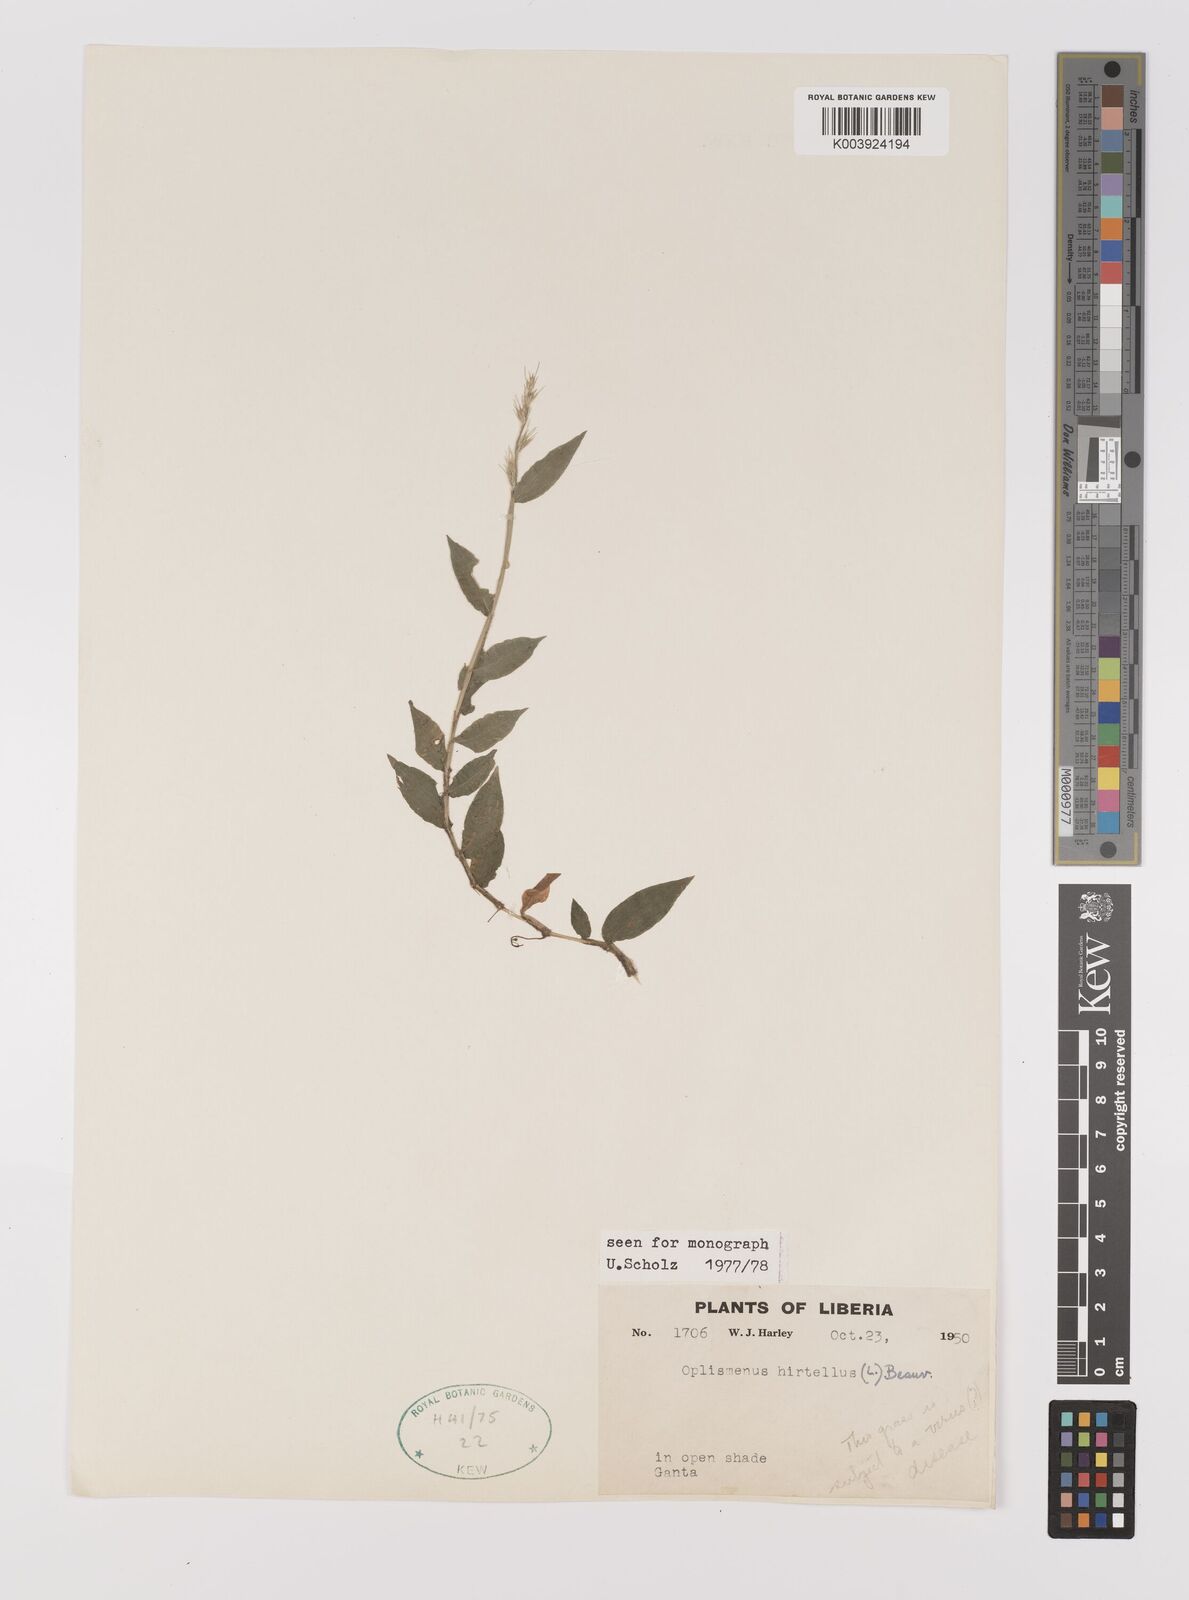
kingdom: Plantae
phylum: Tracheophyta
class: Liliopsida
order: Poales
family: Poaceae
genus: Oplismenus
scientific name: Oplismenus hirtellus
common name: Basketgrass
